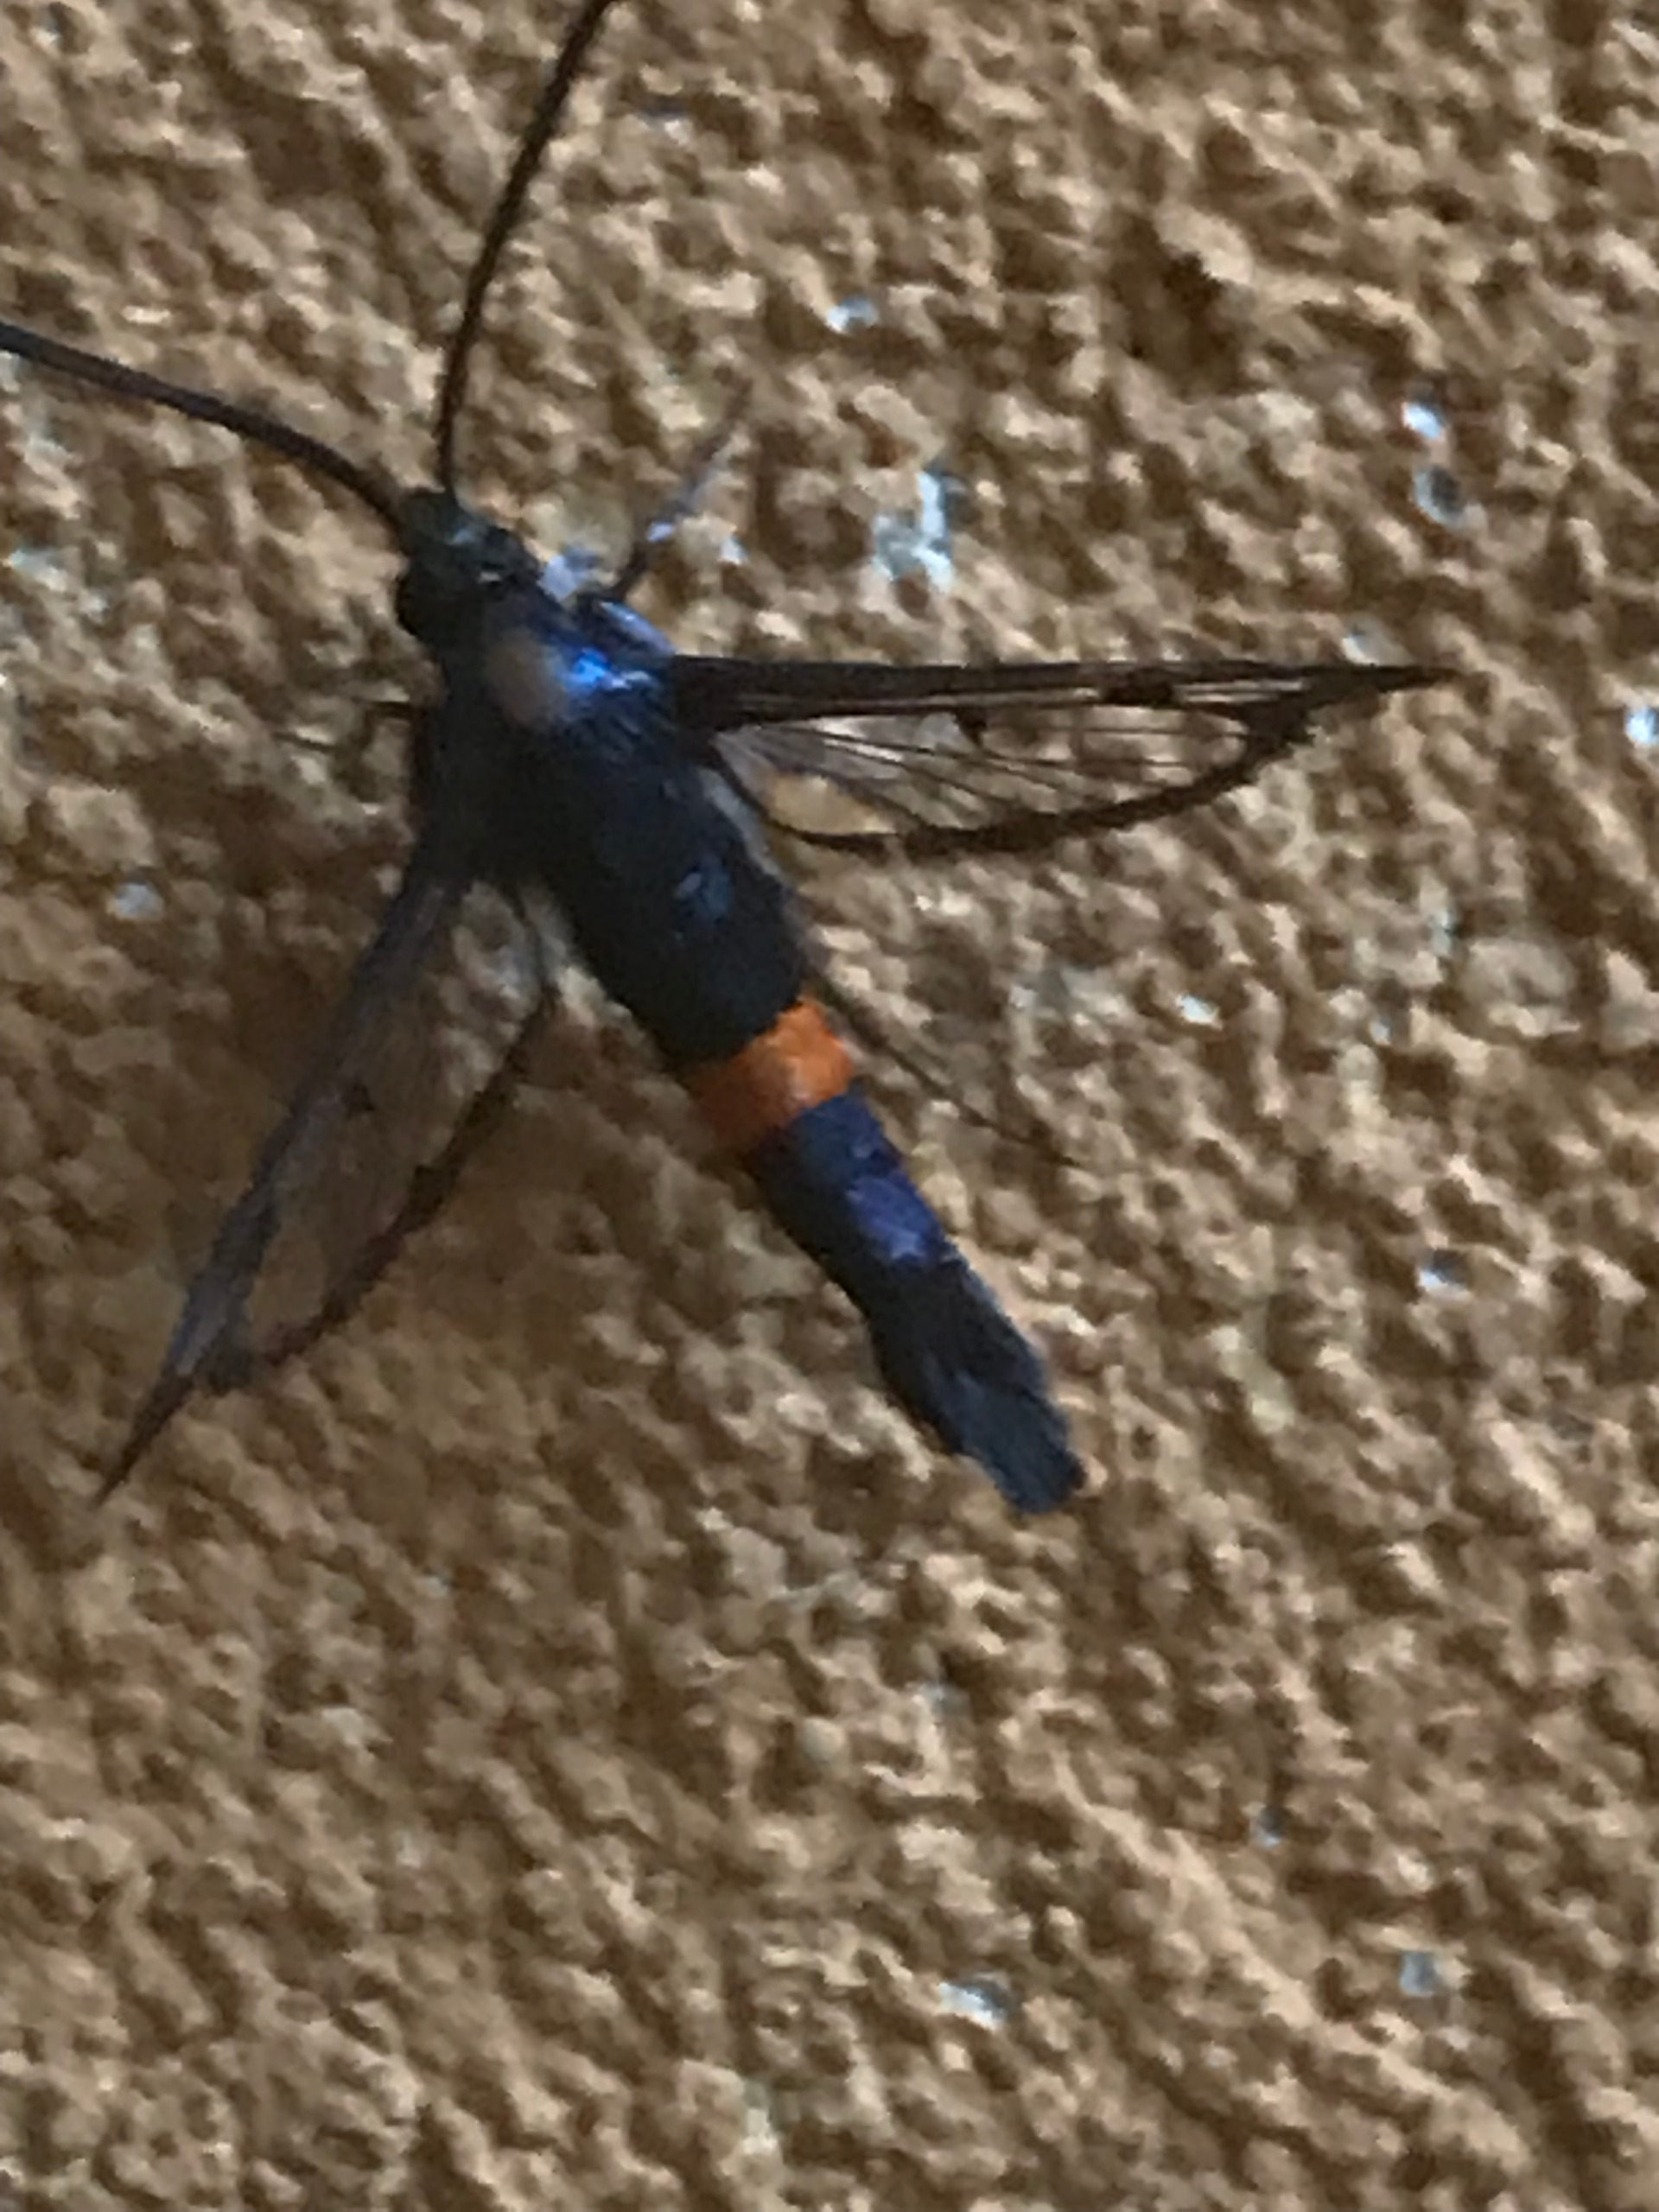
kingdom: Animalia
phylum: Arthropoda
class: Insecta
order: Lepidoptera
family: Sesiidae
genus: Synanthedon
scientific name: Synanthedon myopaeformis
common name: Æbleglassværmer
